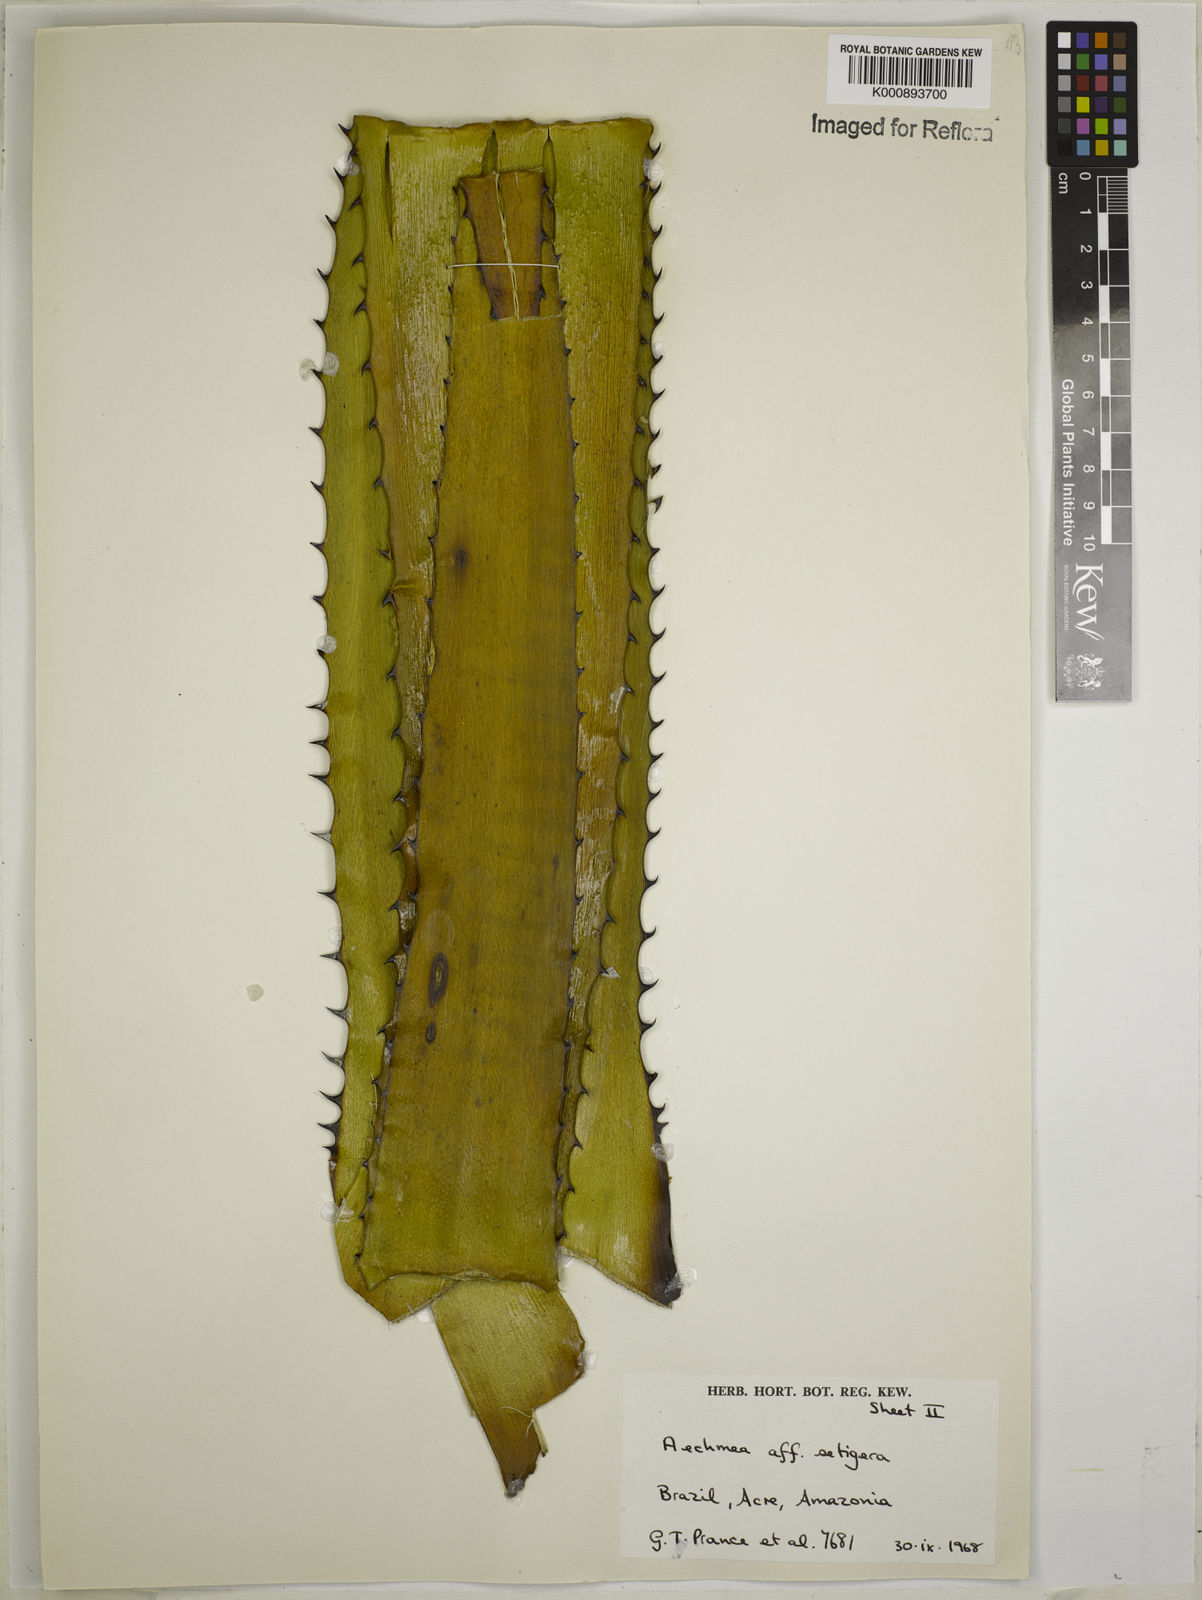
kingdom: Plantae
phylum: Tracheophyta
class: Liliopsida
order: Poales
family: Bromeliaceae
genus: Aechmea
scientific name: Aechmea setigera
